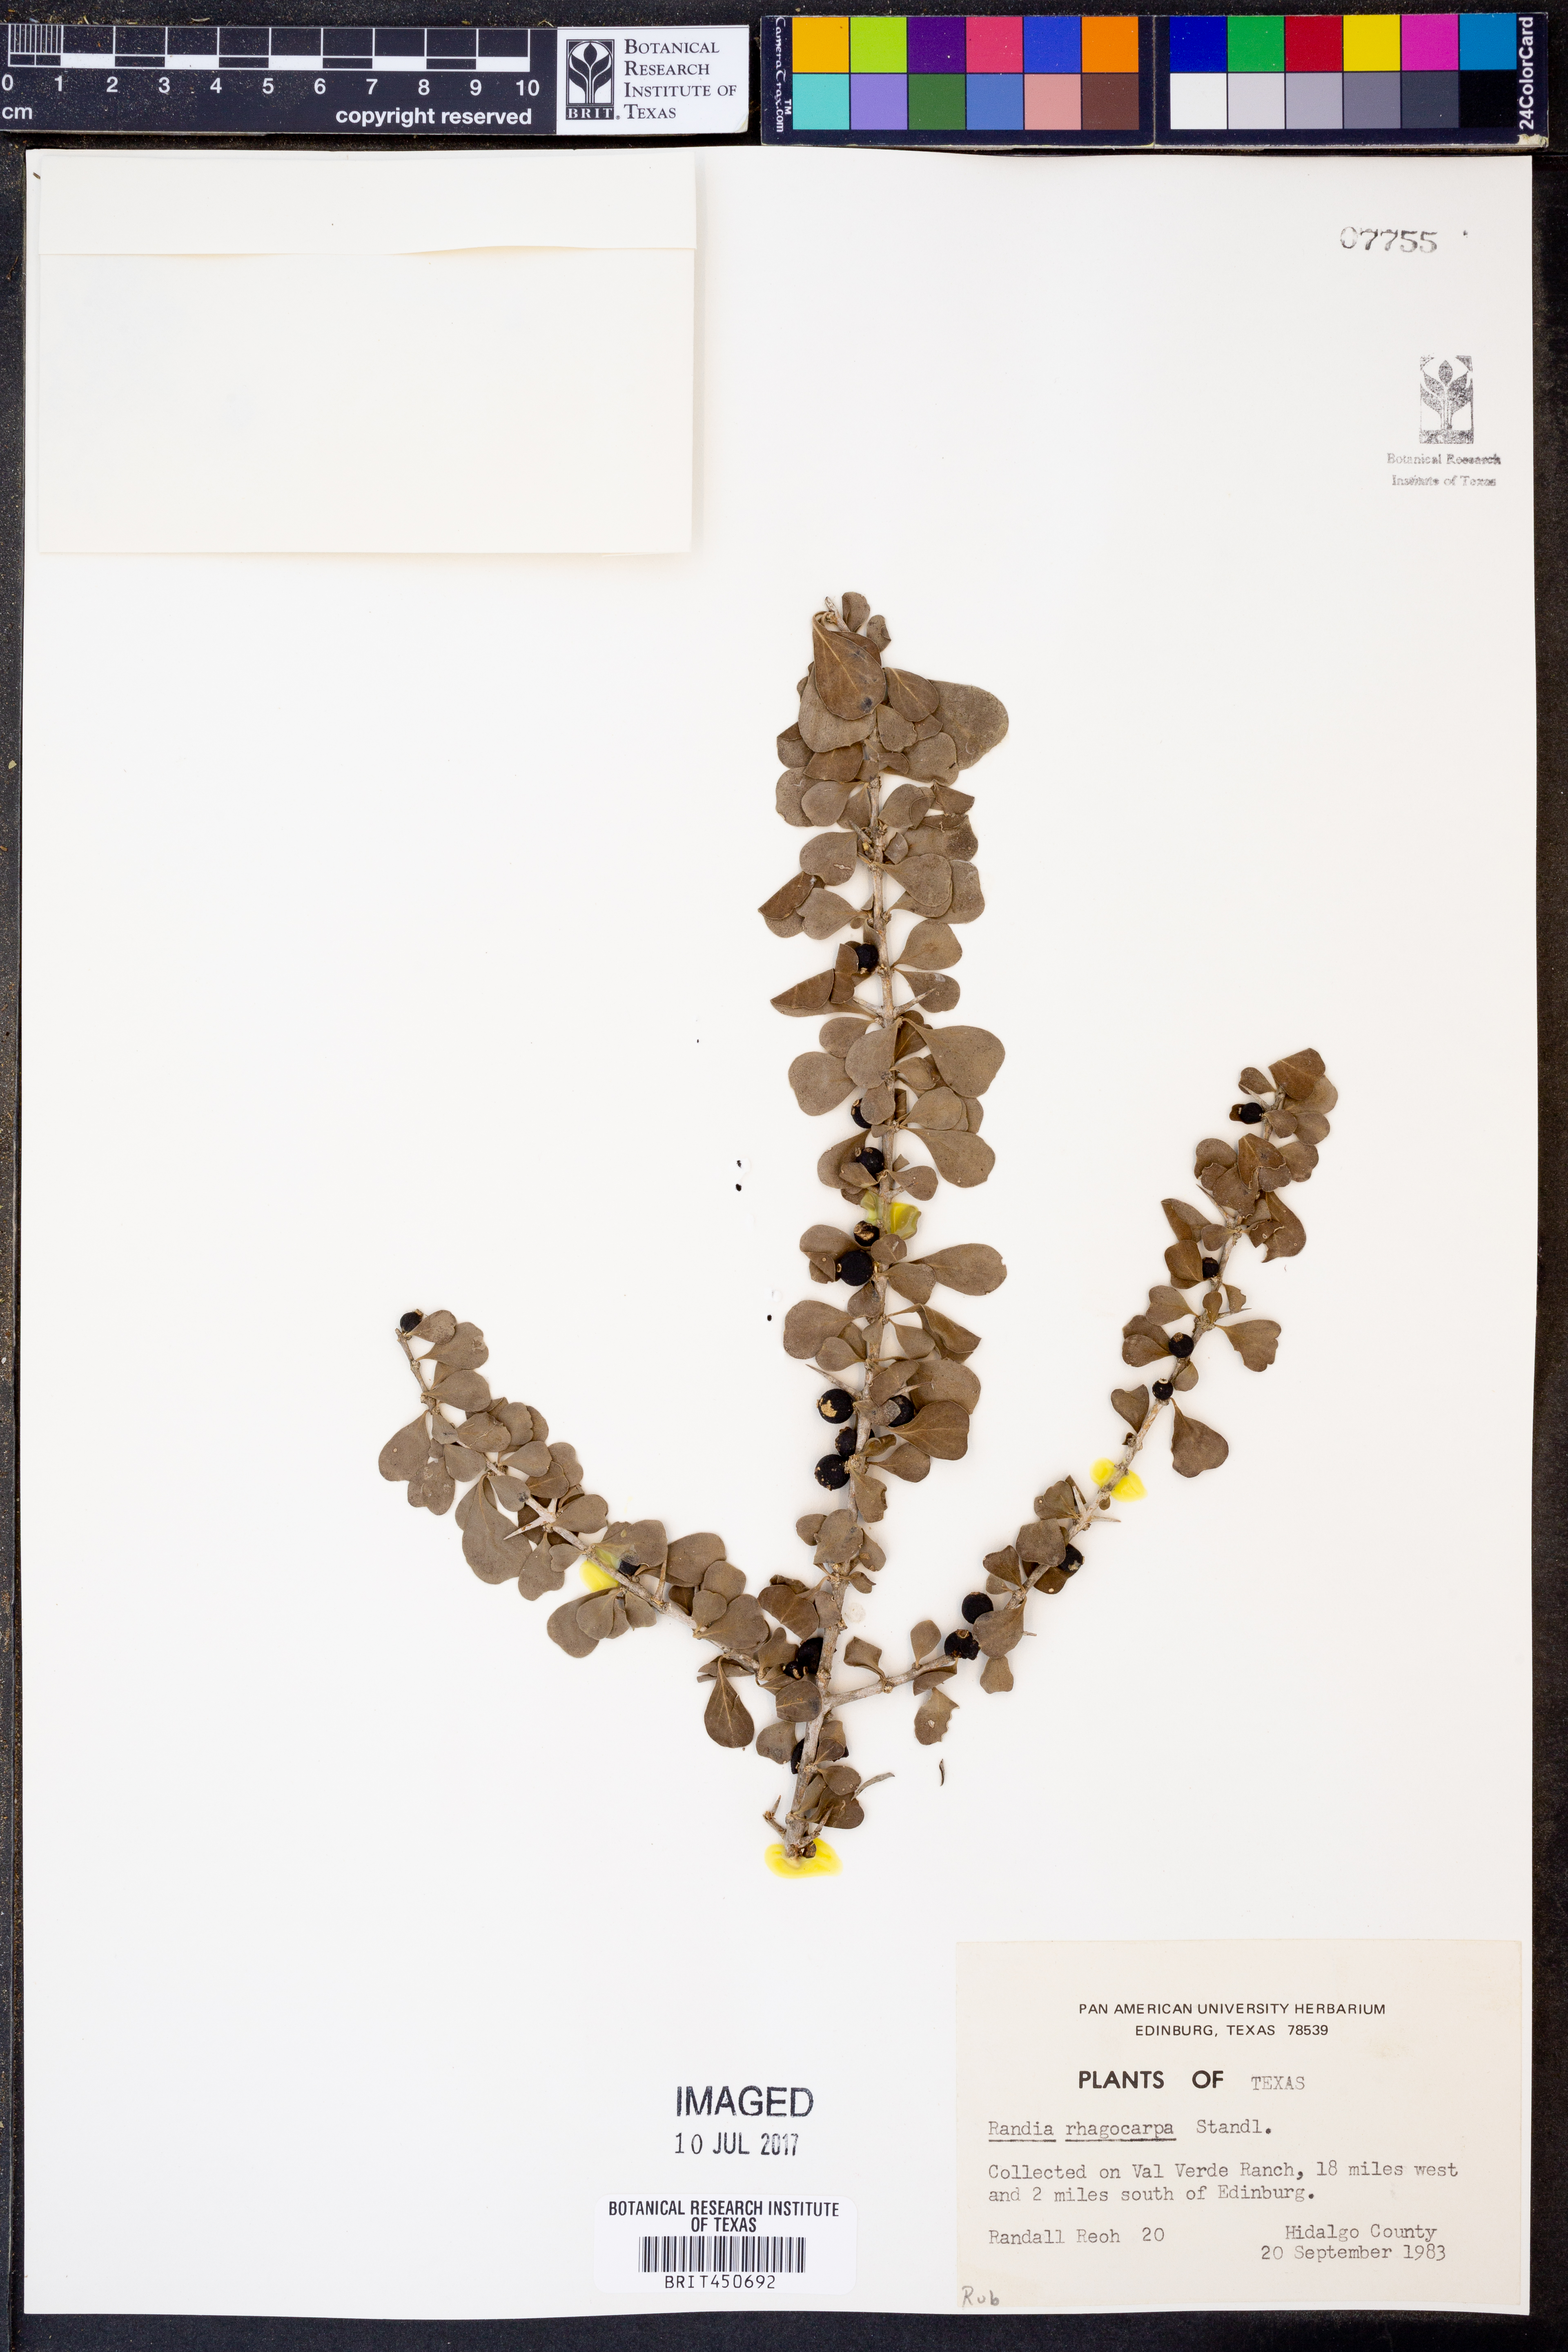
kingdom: Plantae
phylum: Tracheophyta
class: Magnoliopsida
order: Gentianales
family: Rubiaceae
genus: Randia
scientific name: Randia obcordata
